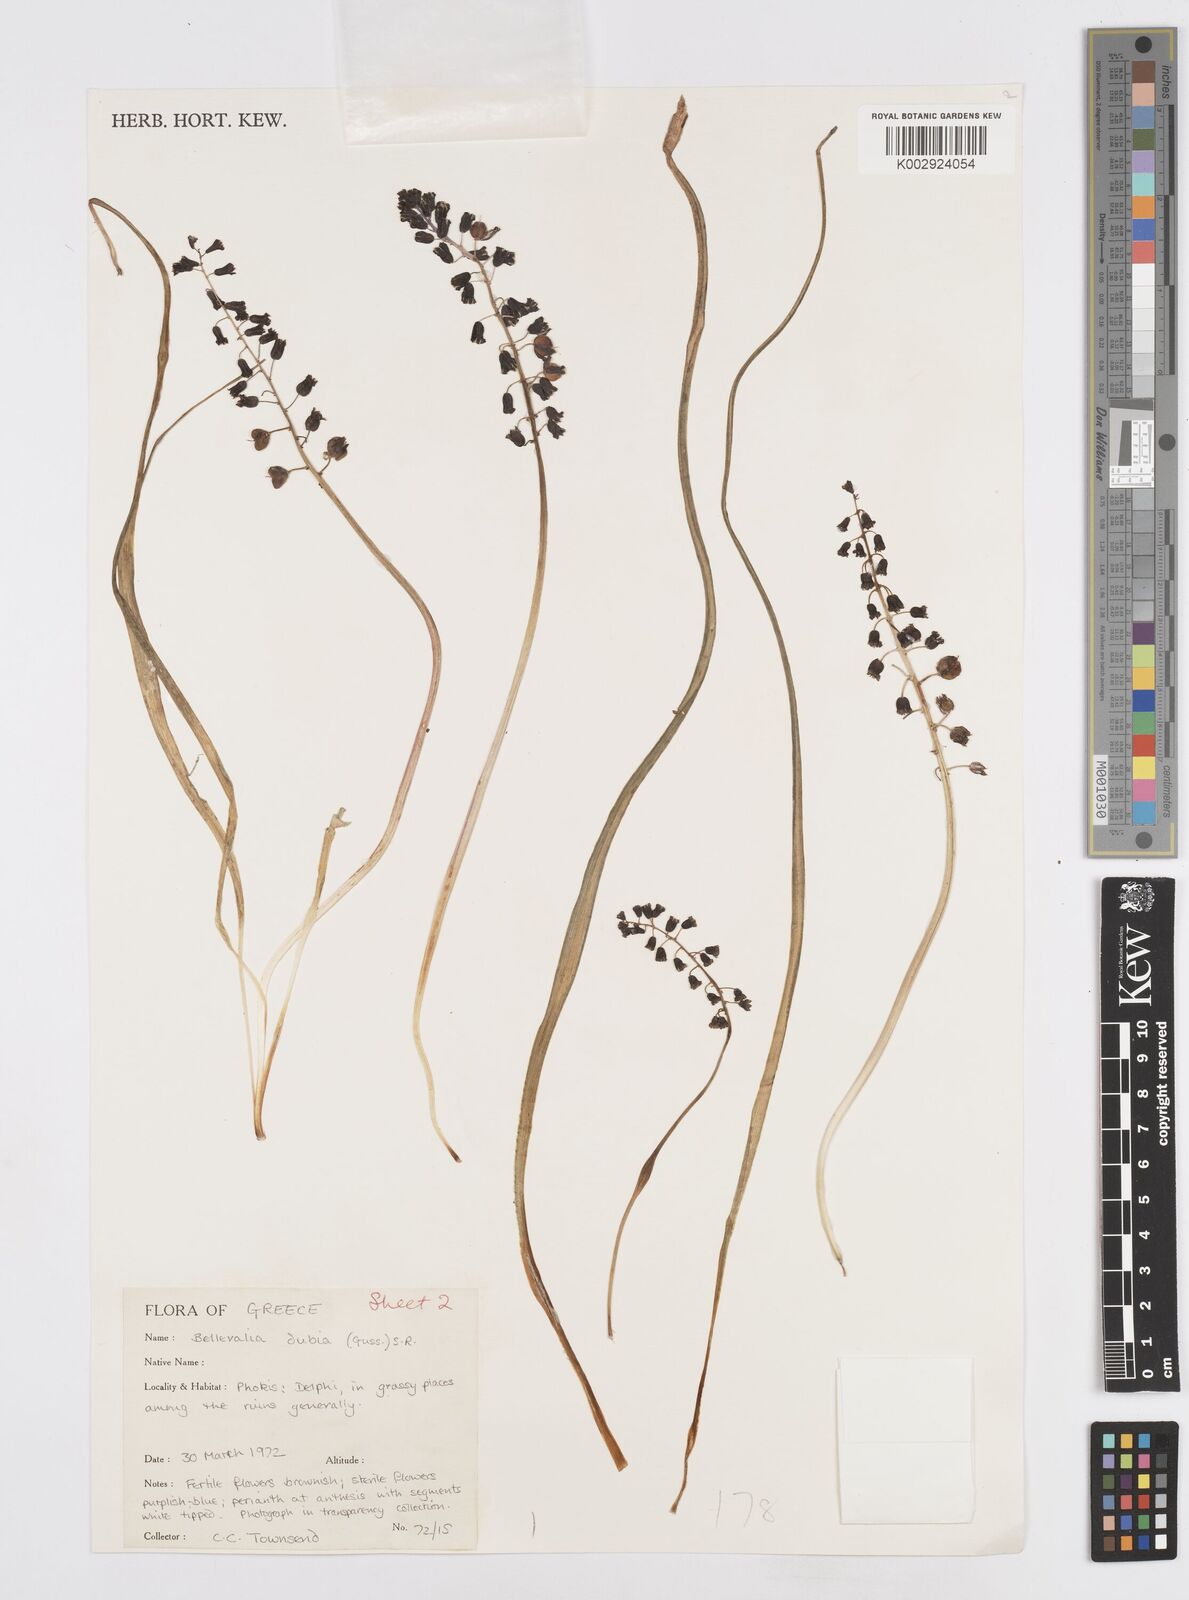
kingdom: Plantae
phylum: Tracheophyta
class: Liliopsida
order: Asparagales
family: Asparagaceae
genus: Bellevalia
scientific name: Bellevalia dubia
